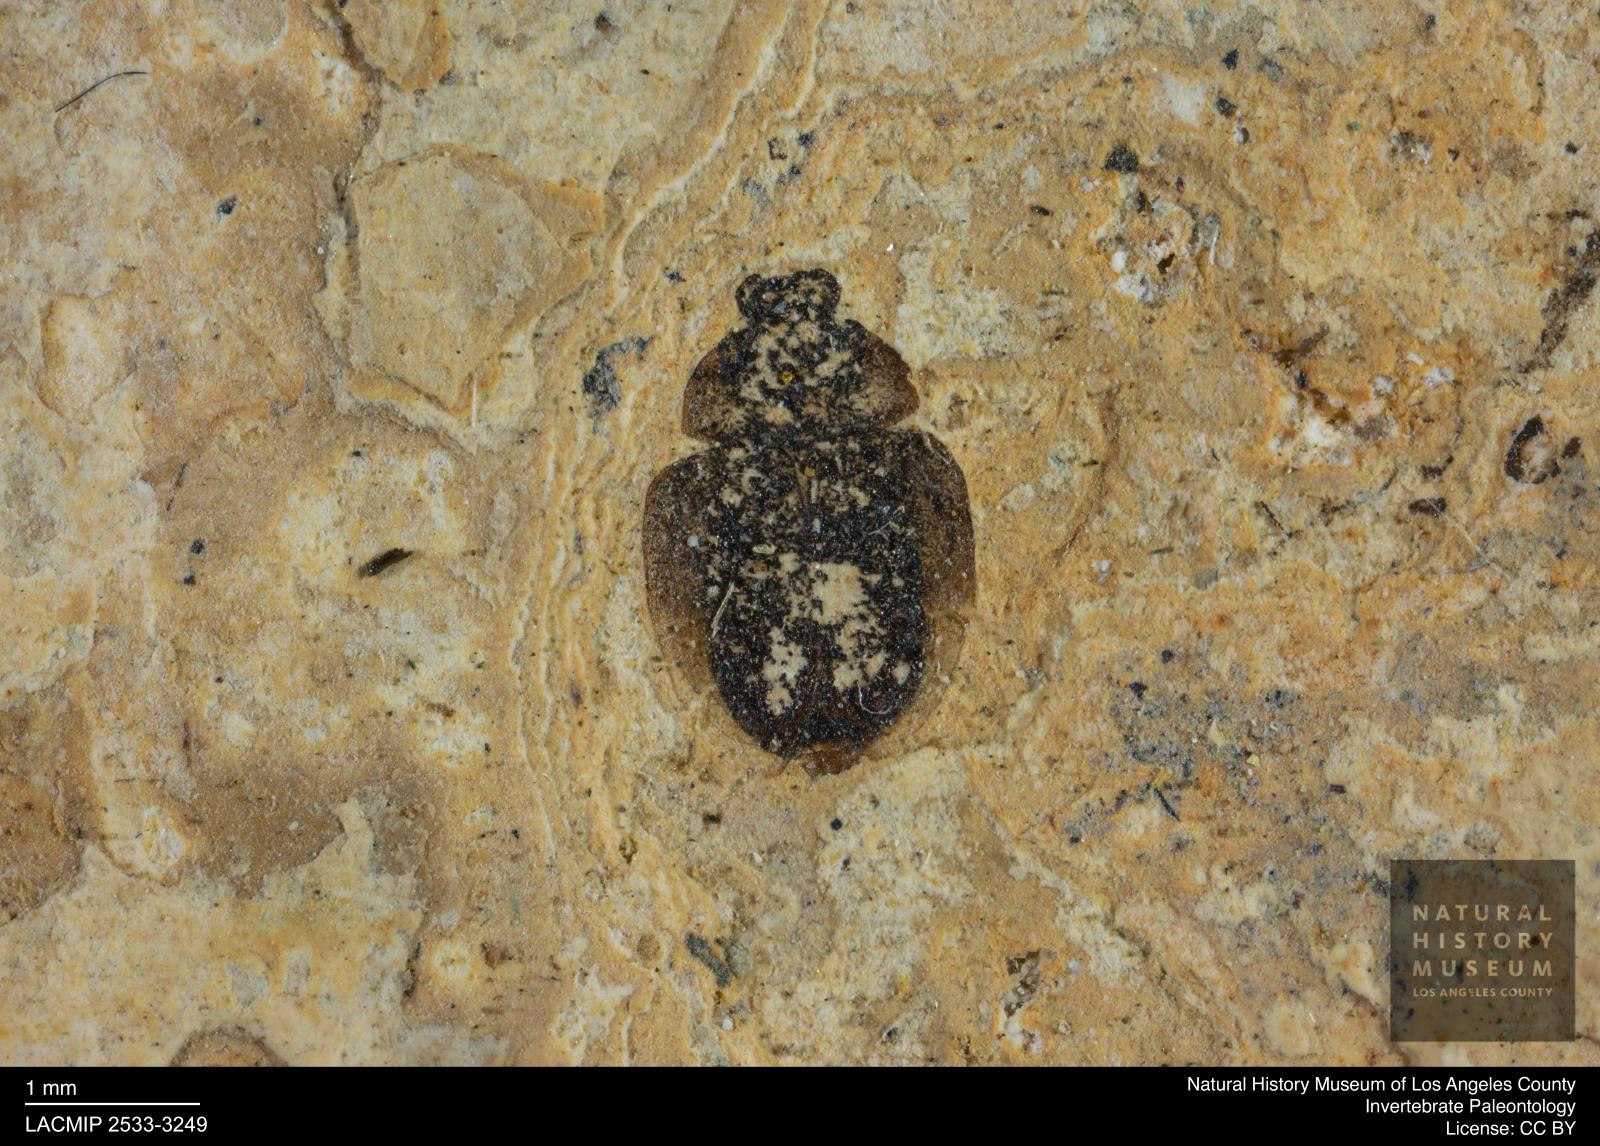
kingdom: Animalia
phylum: Arthropoda
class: Insecta
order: Coleoptera
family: Hydrophilidae
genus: Paracymus
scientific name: Paracymus excitatus
